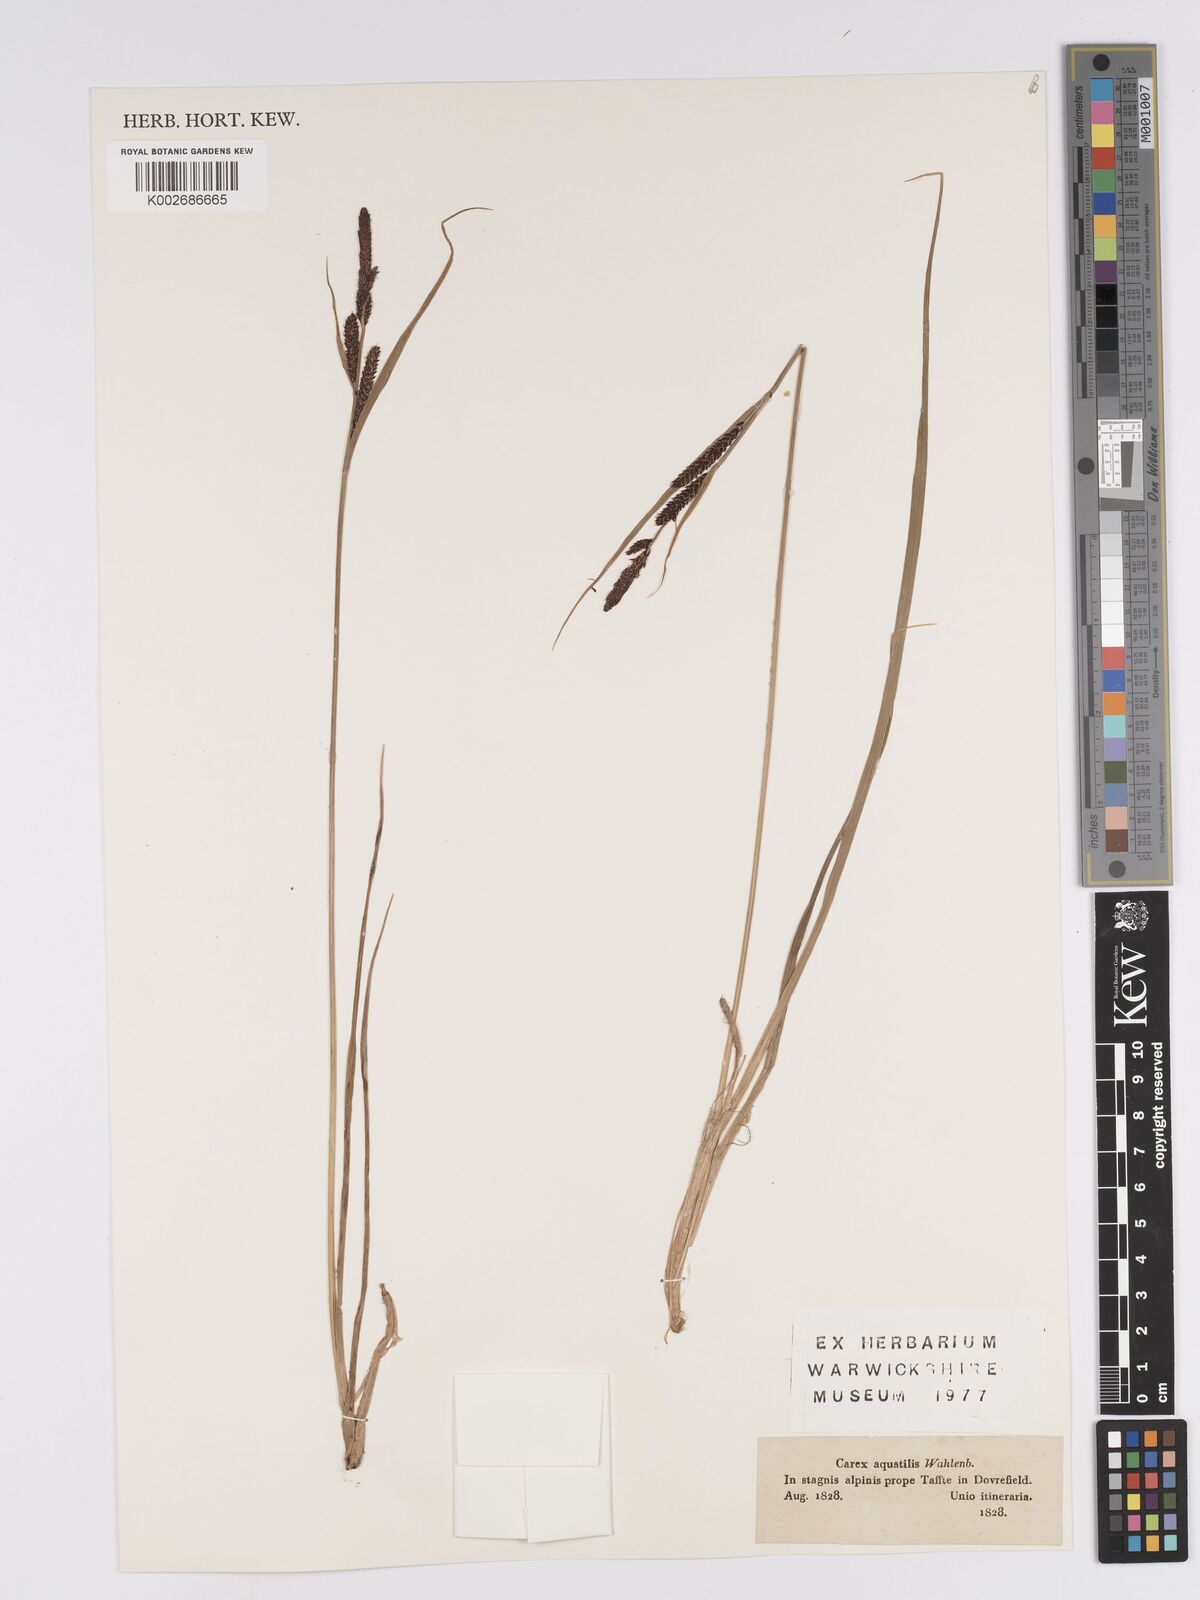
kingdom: Plantae
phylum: Tracheophyta
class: Liliopsida
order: Poales
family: Cyperaceae
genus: Carex
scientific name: Carex aquatilis
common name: Water sedge
